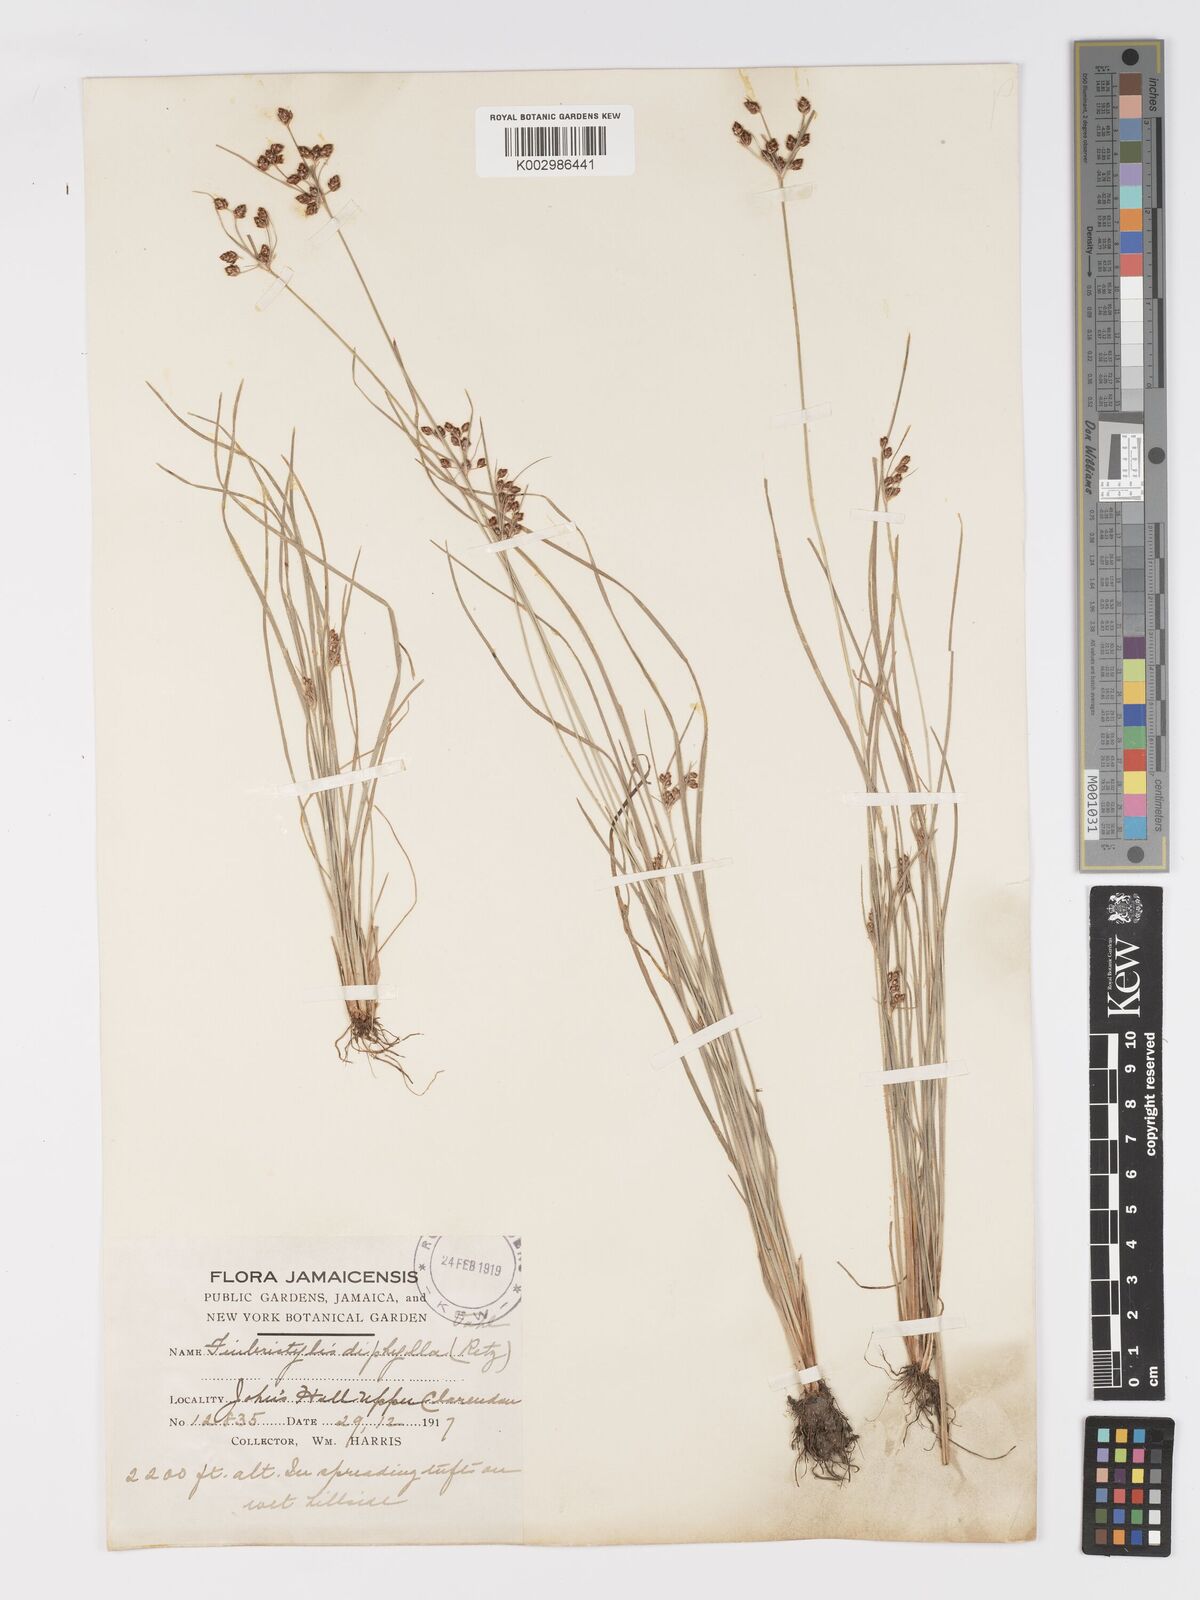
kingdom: Plantae
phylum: Tracheophyta
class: Liliopsida
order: Poales
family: Cyperaceae
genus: Fimbristylis
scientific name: Fimbristylis dichotoma
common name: Forked fimbry
